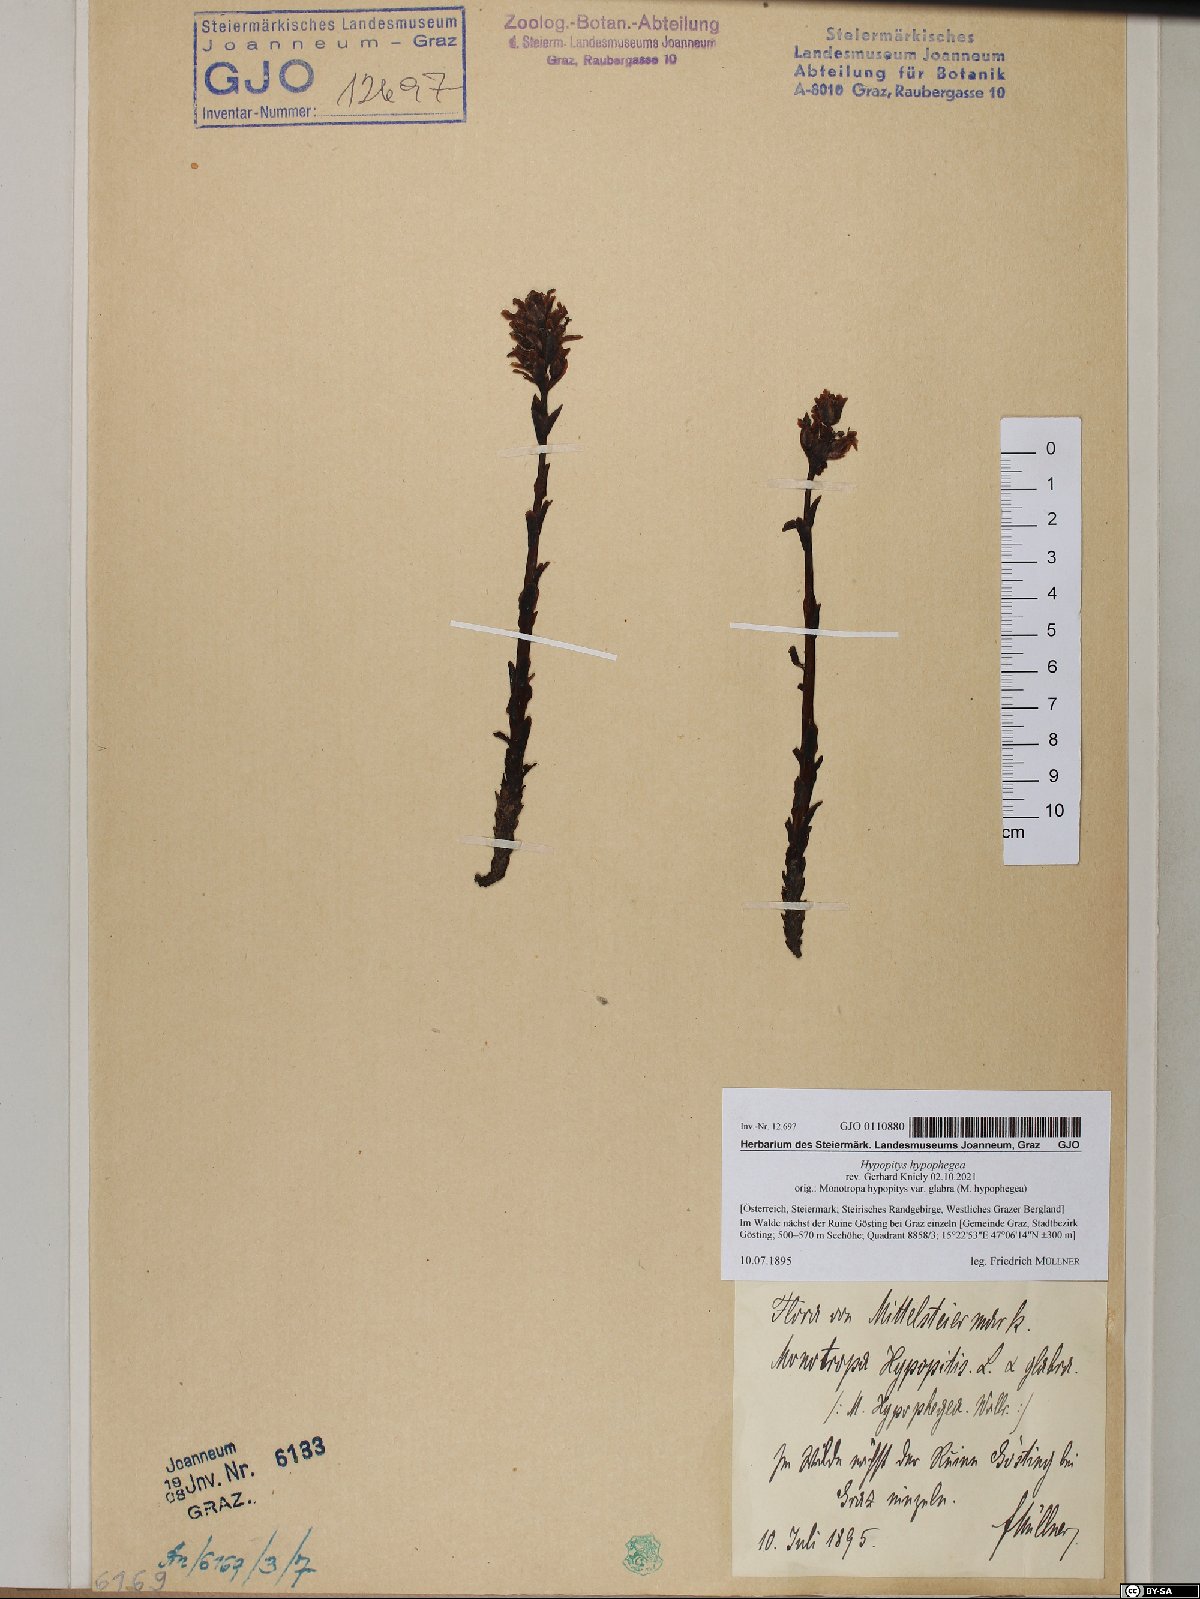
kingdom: Plantae
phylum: Tracheophyta
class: Magnoliopsida
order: Ericales
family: Ericaceae
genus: Hypopitys
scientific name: Hypopitys hypophegea
